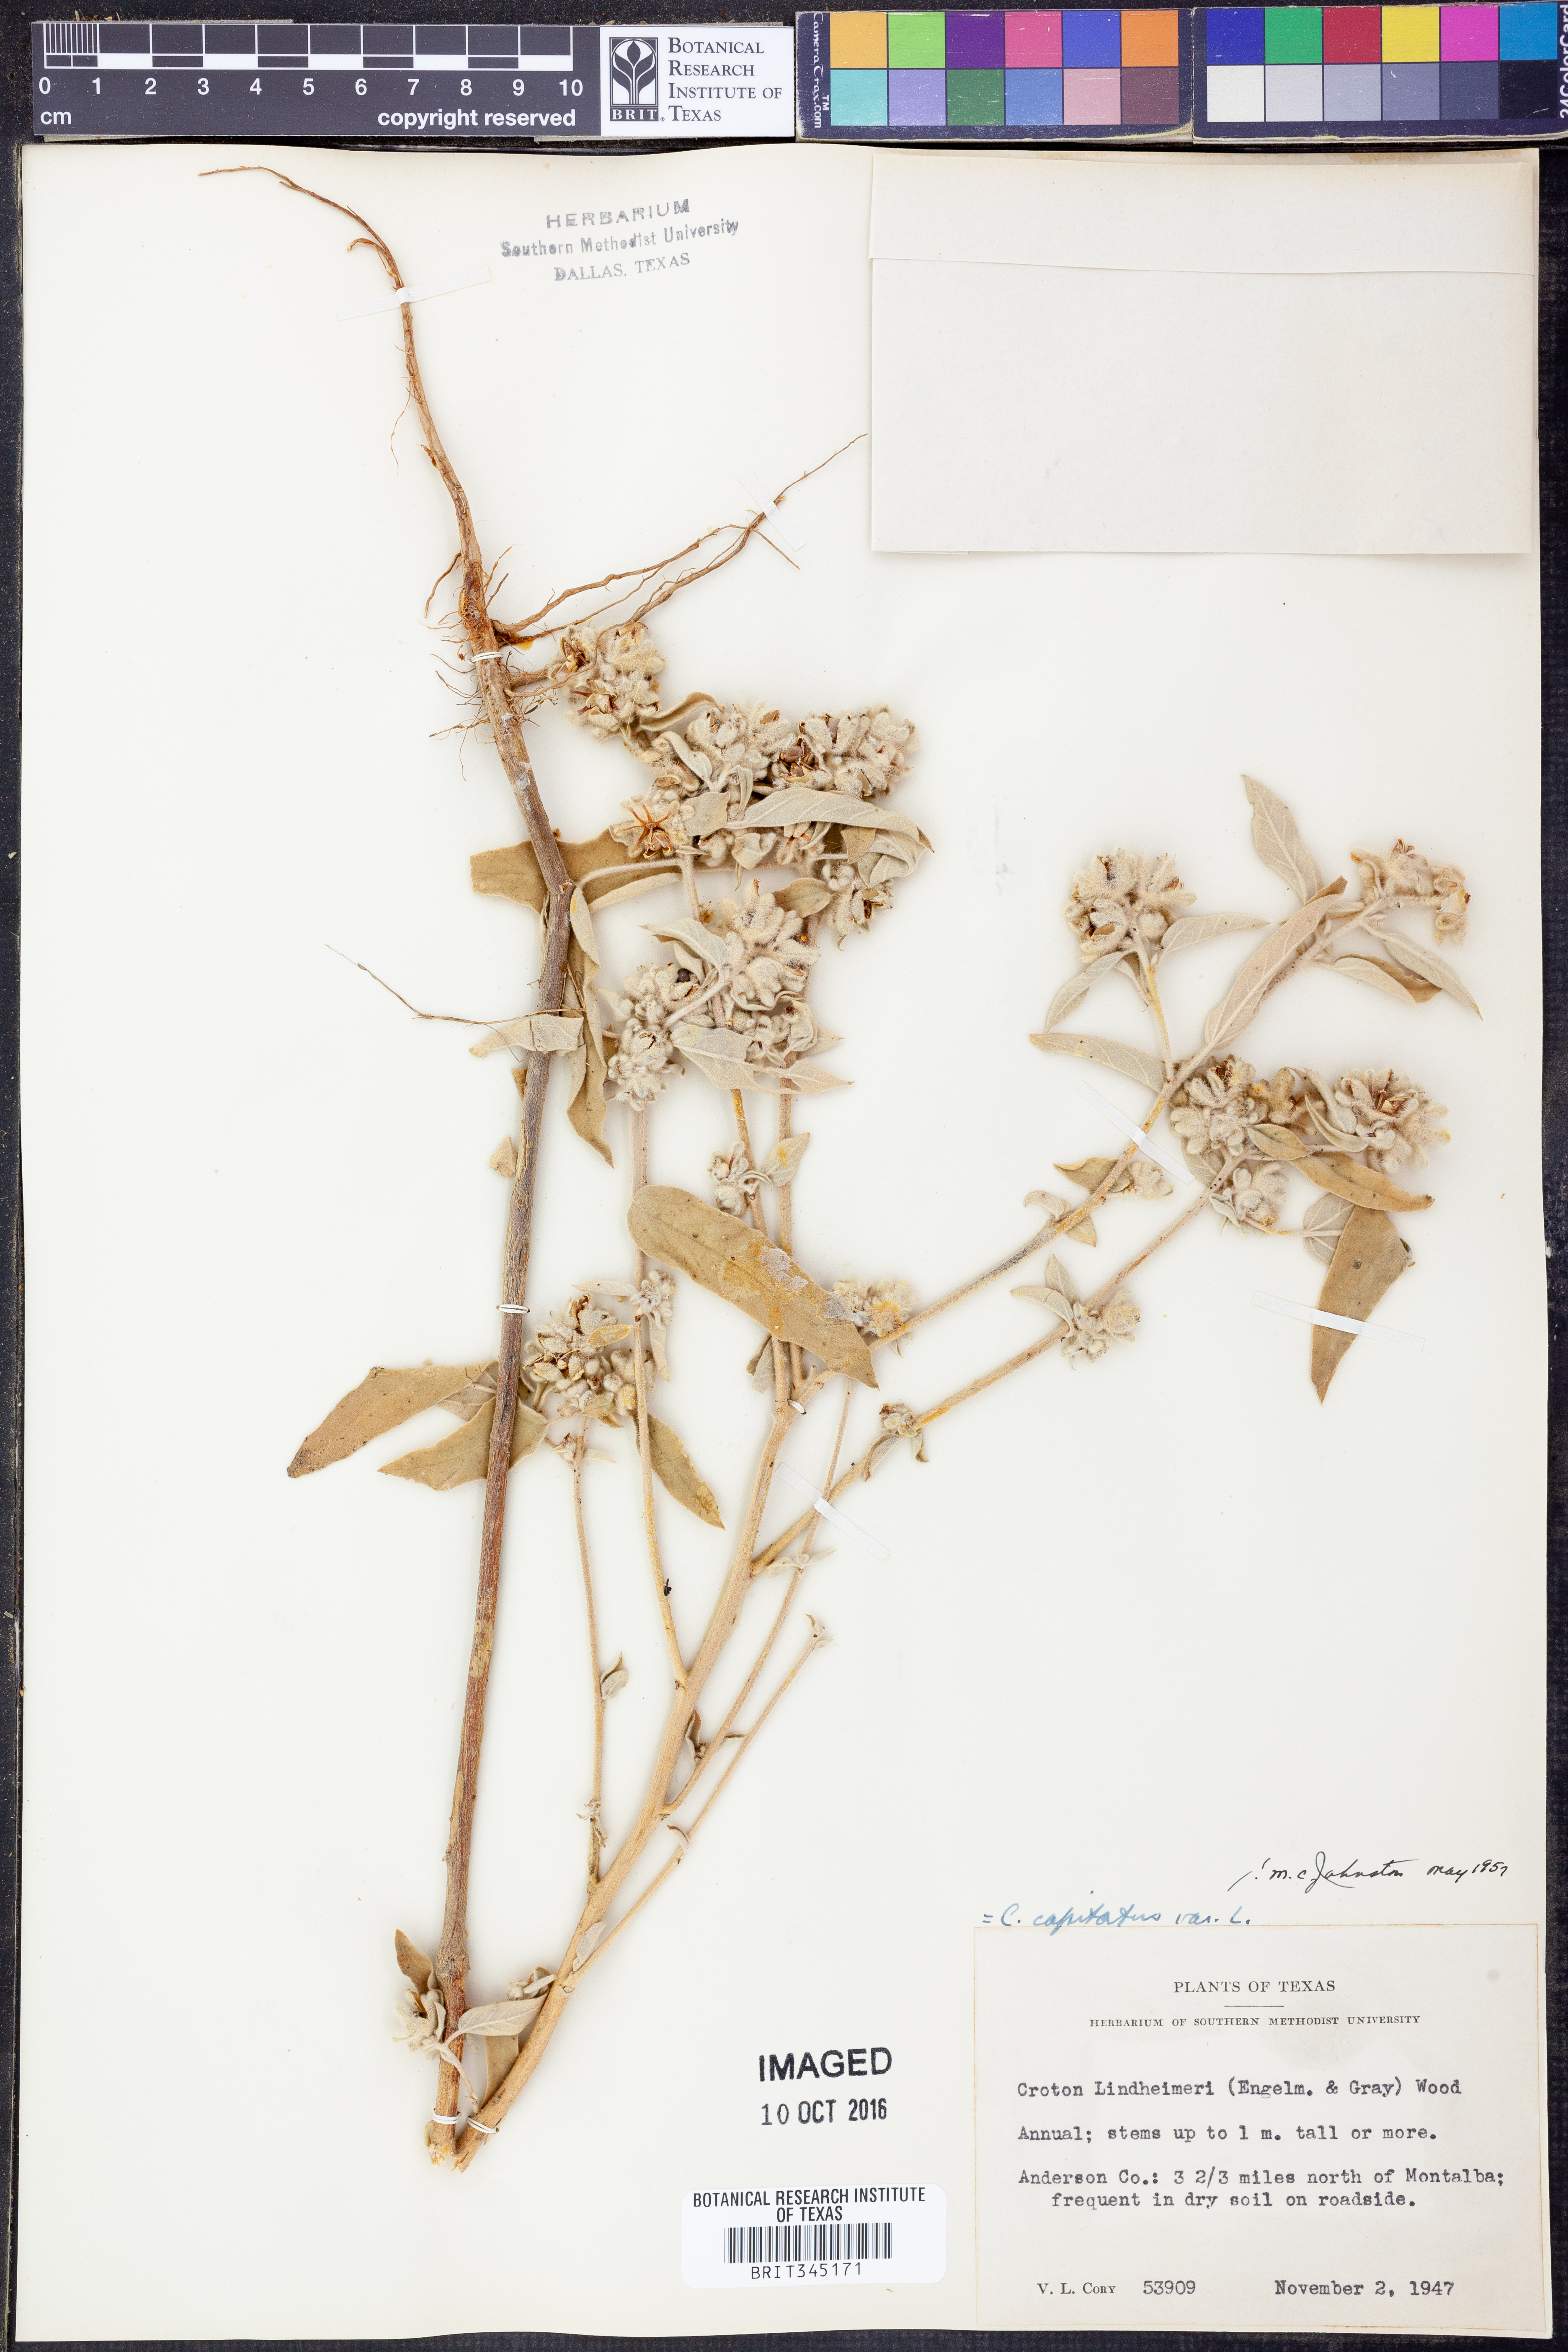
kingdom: Plantae
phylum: Tracheophyta
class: Magnoliopsida
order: Malpighiales
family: Euphorbiaceae
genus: Croton
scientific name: Croton lindheimeri
